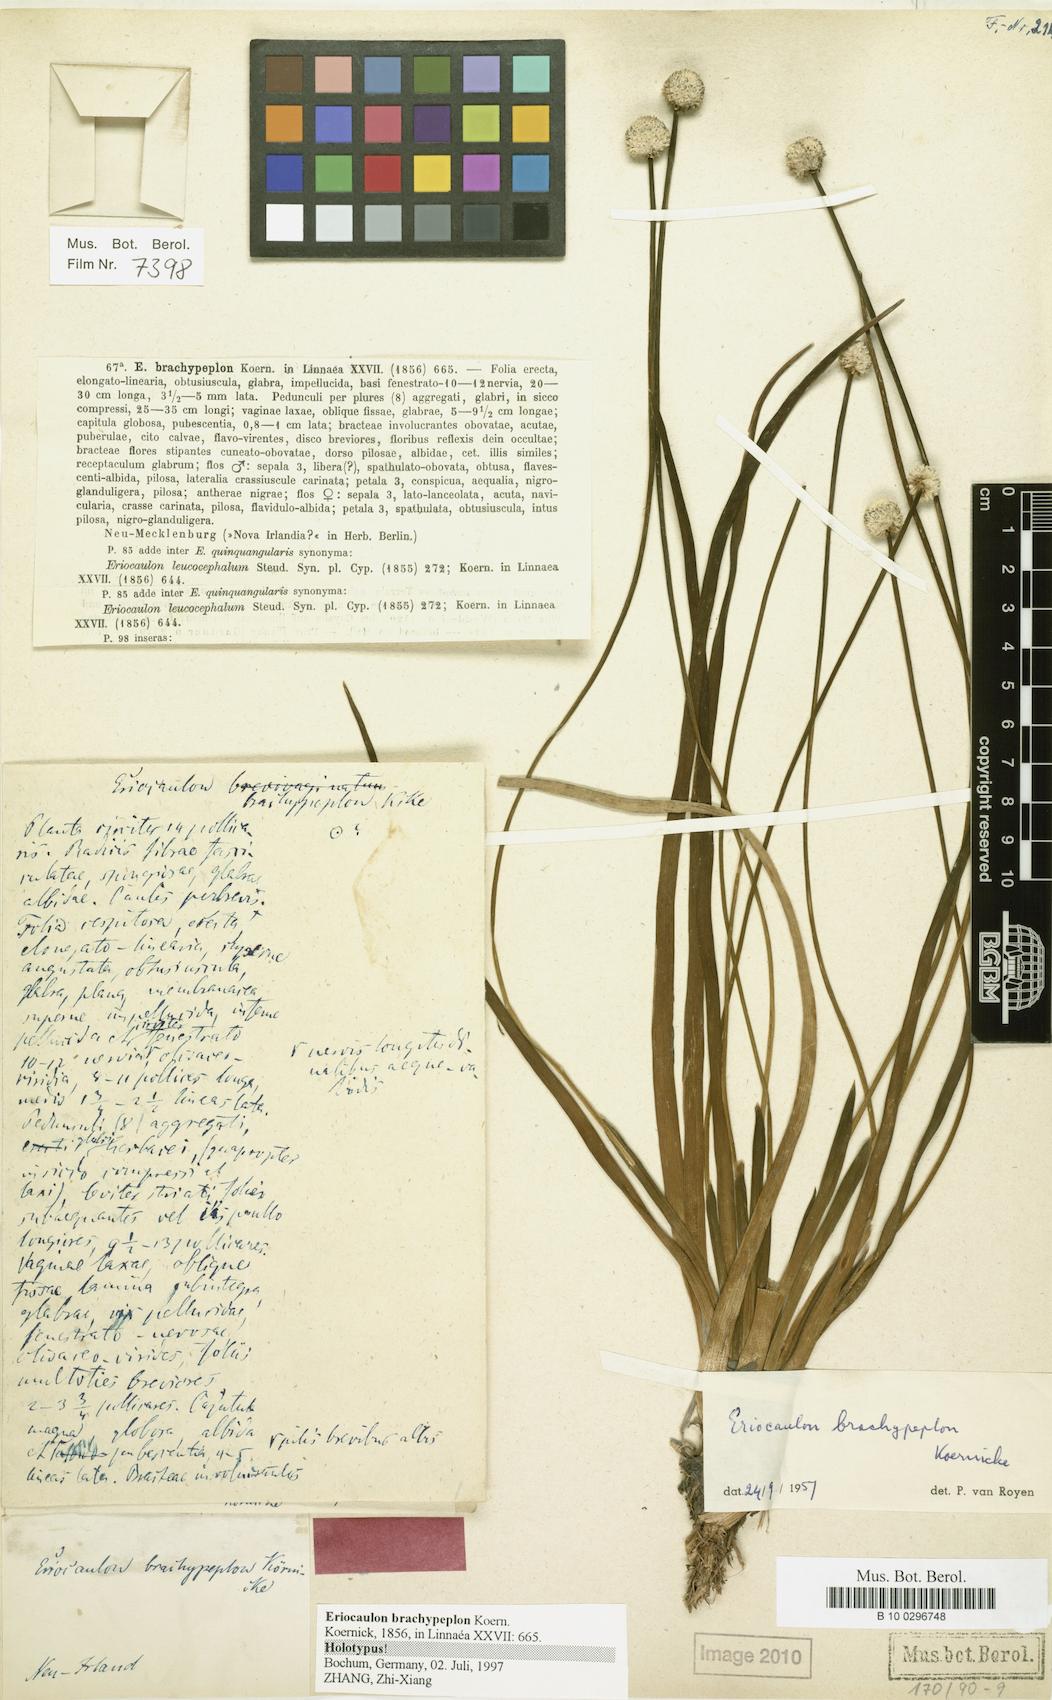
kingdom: Plantae
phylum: Tracheophyta
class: Liliopsida
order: Poales
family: Eriocaulaceae
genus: Eriocaulon
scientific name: Eriocaulon brachypeplon
